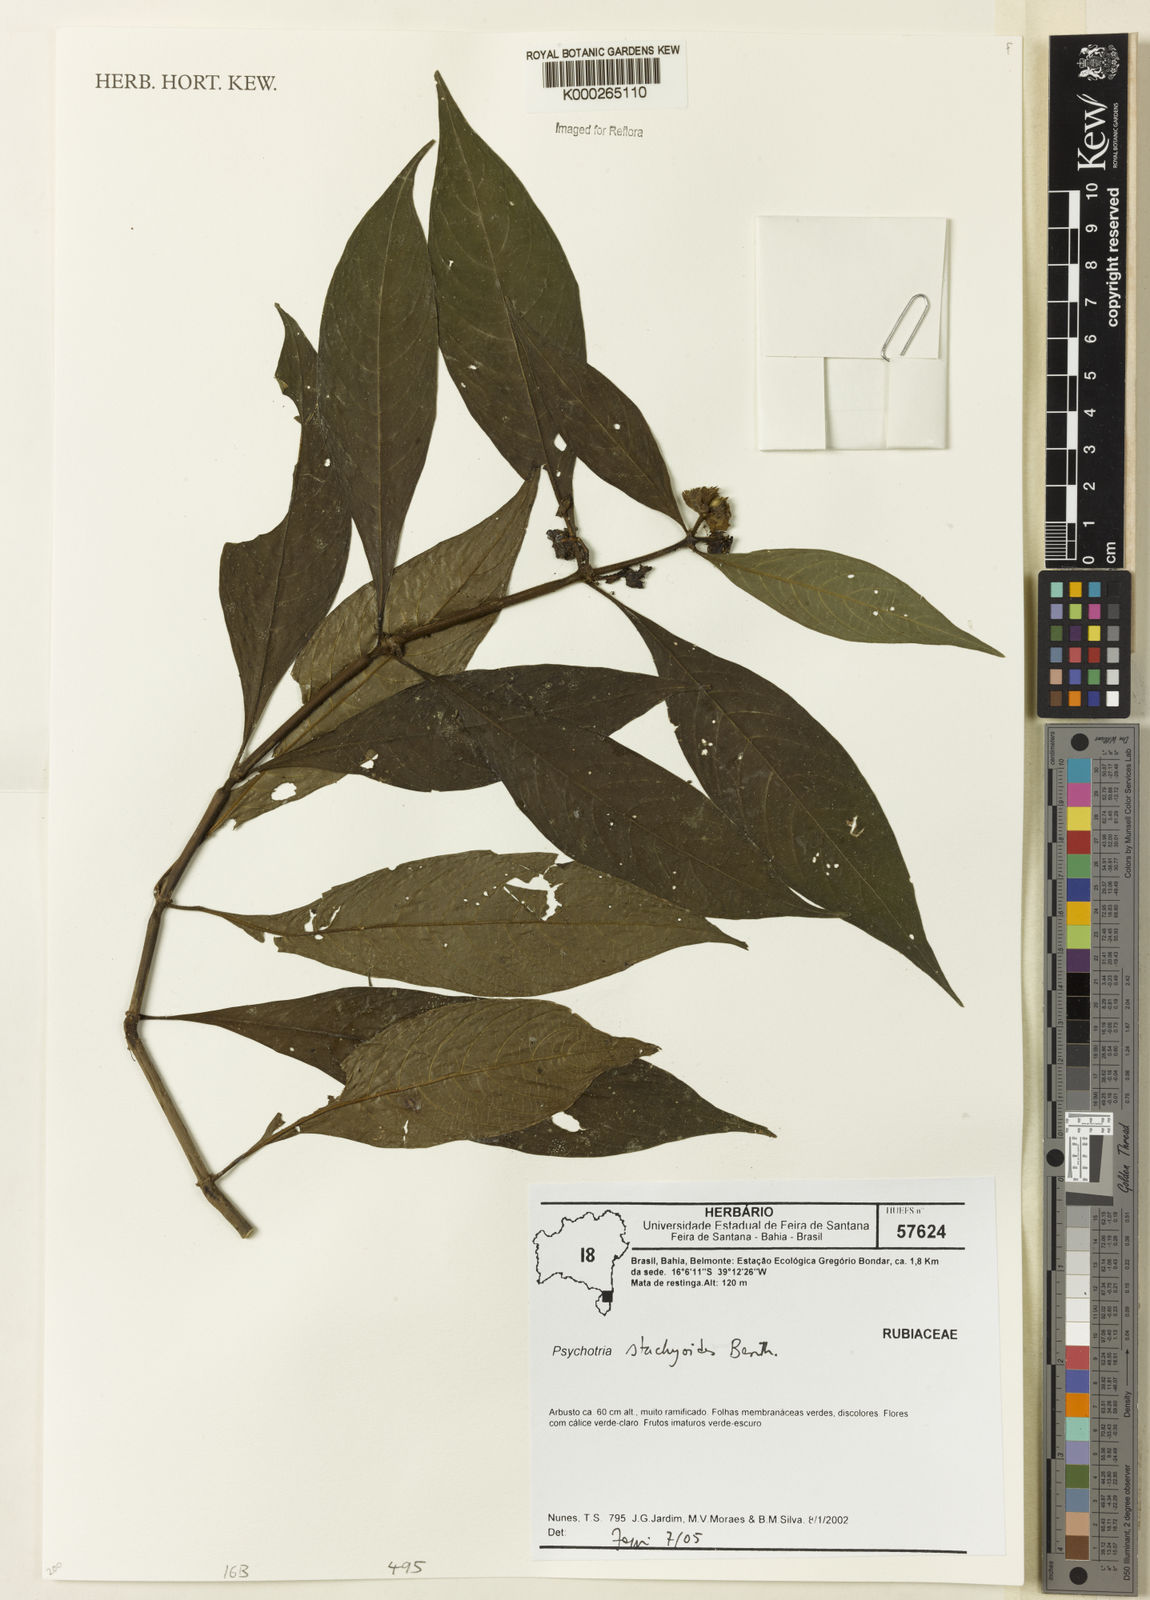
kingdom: Plantae
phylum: Tracheophyta
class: Magnoliopsida
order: Gentianales
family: Rubiaceae
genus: Psychotria
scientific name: Psychotria stachyoides
